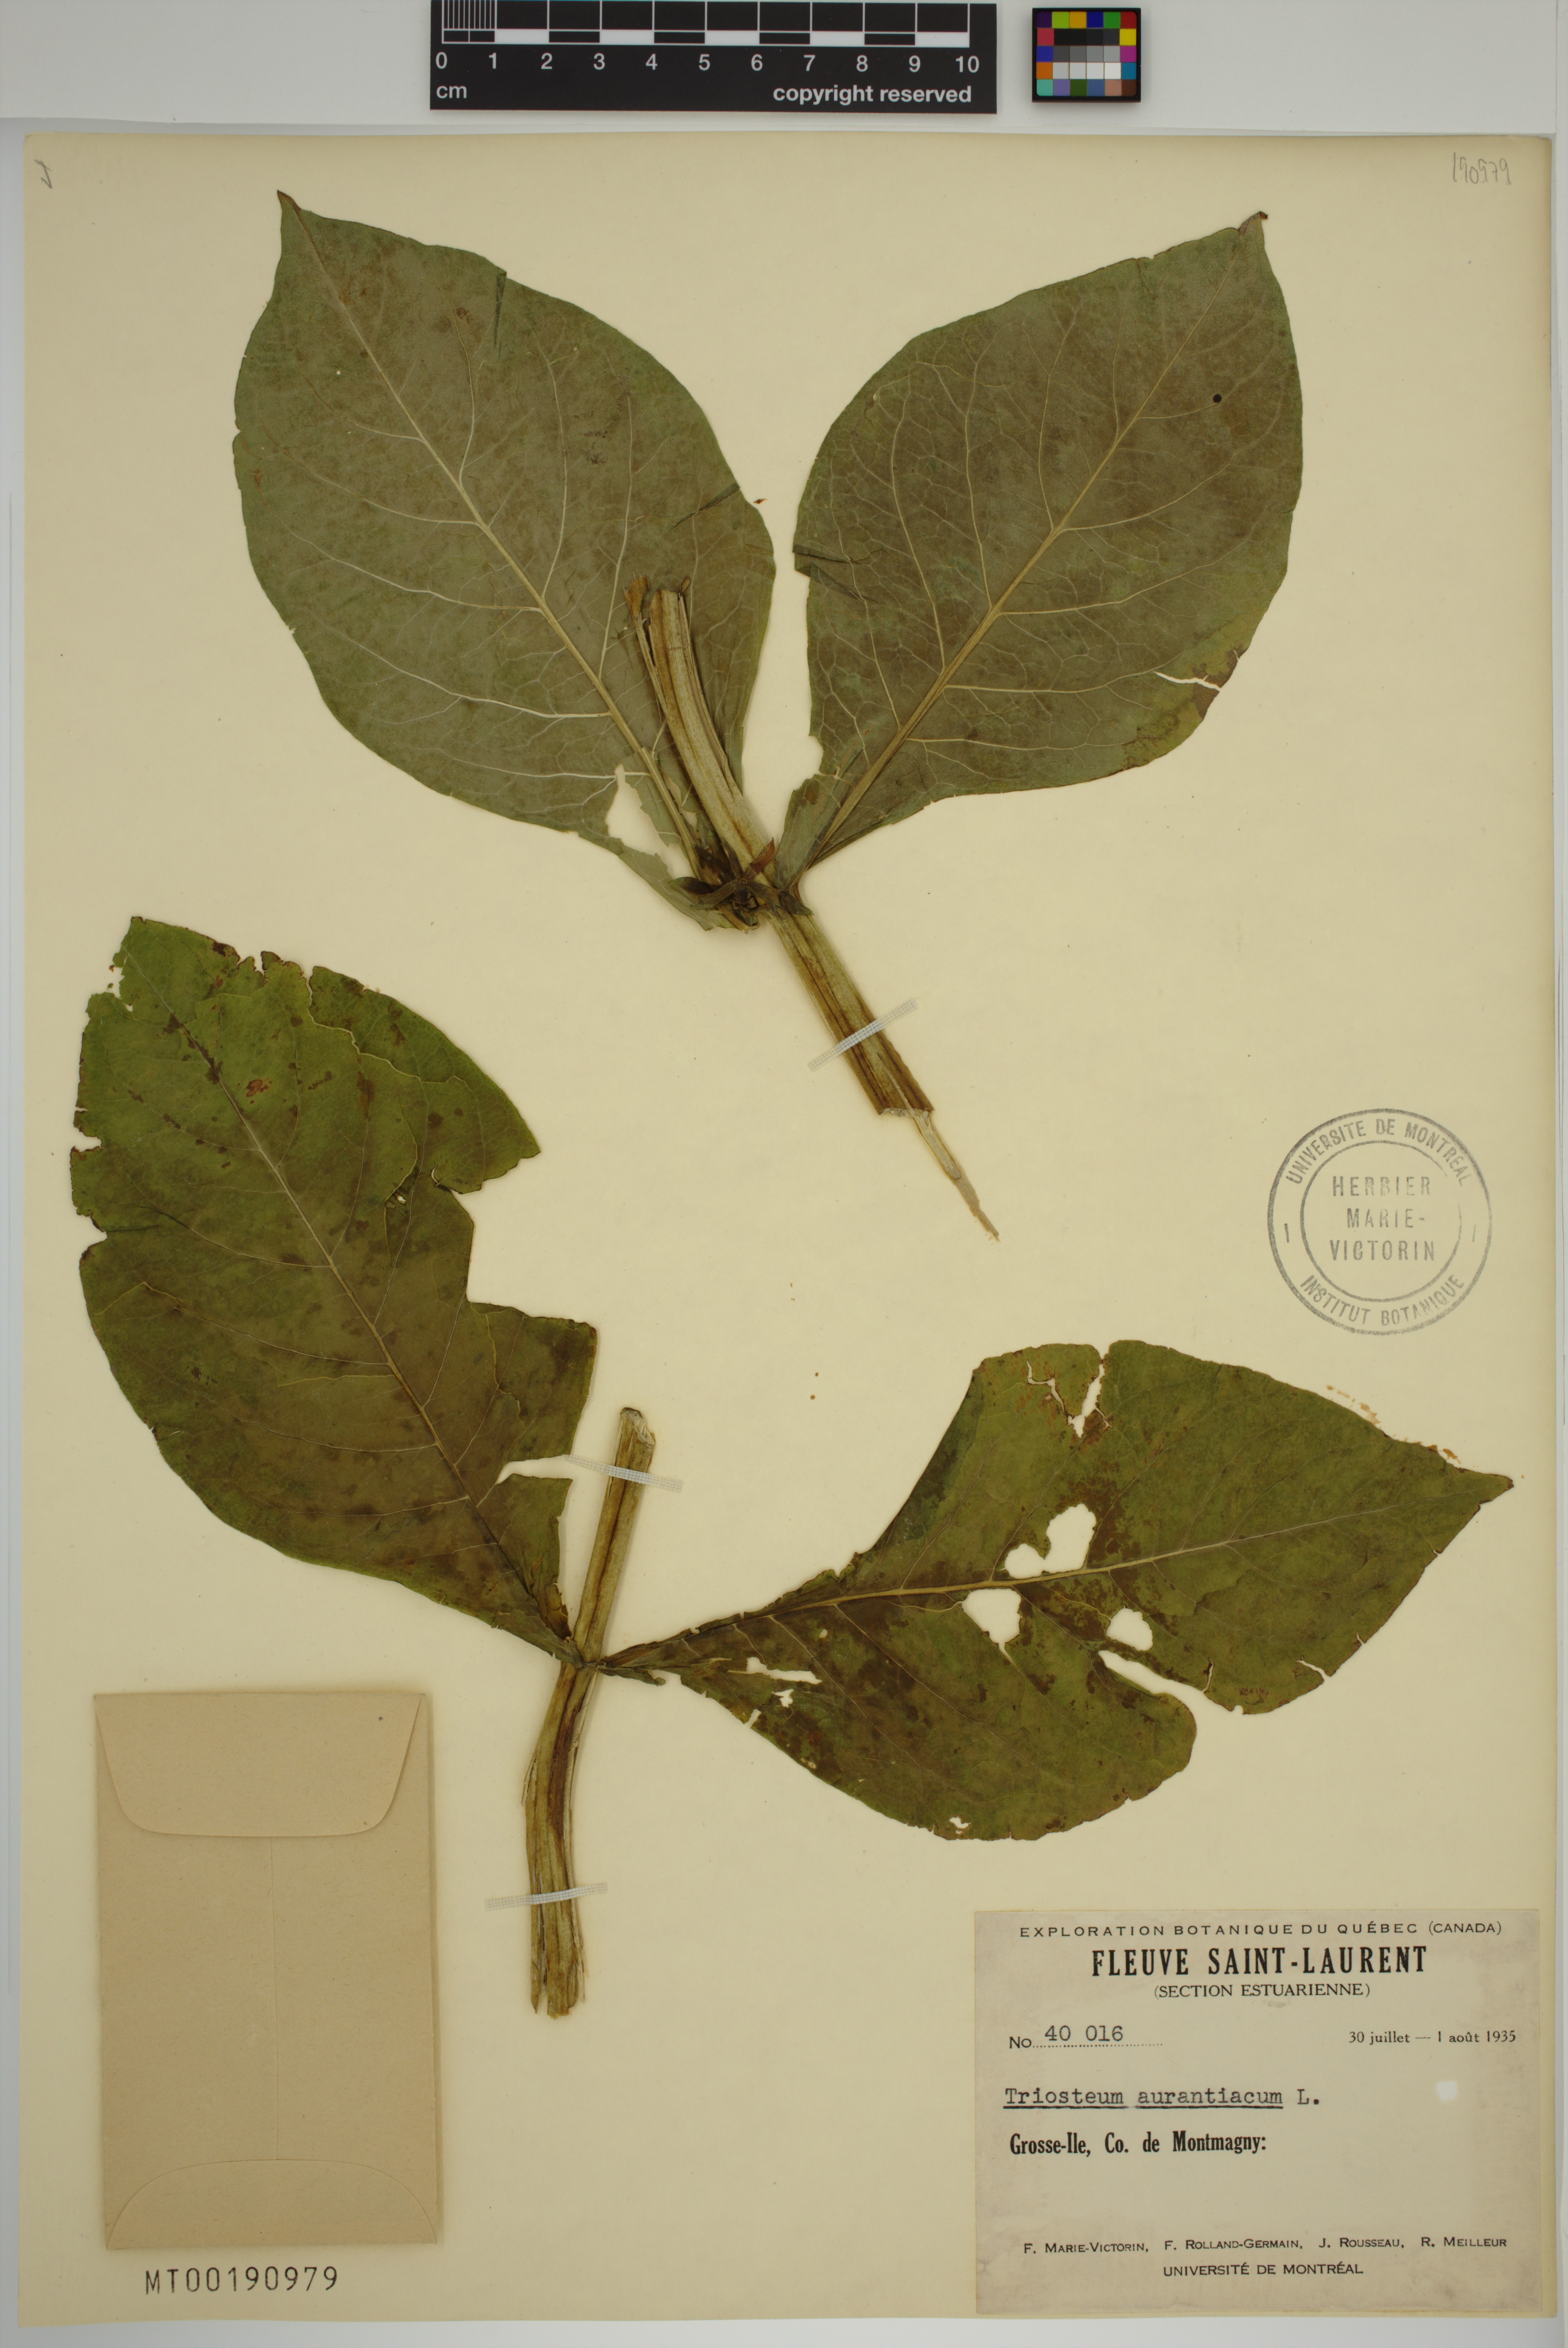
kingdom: Plantae
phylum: Tracheophyta
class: Magnoliopsida
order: Dipsacales
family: Caprifoliaceae
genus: Triosteum
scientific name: Triosteum aurantiacum
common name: Coffee tinker's-weed
